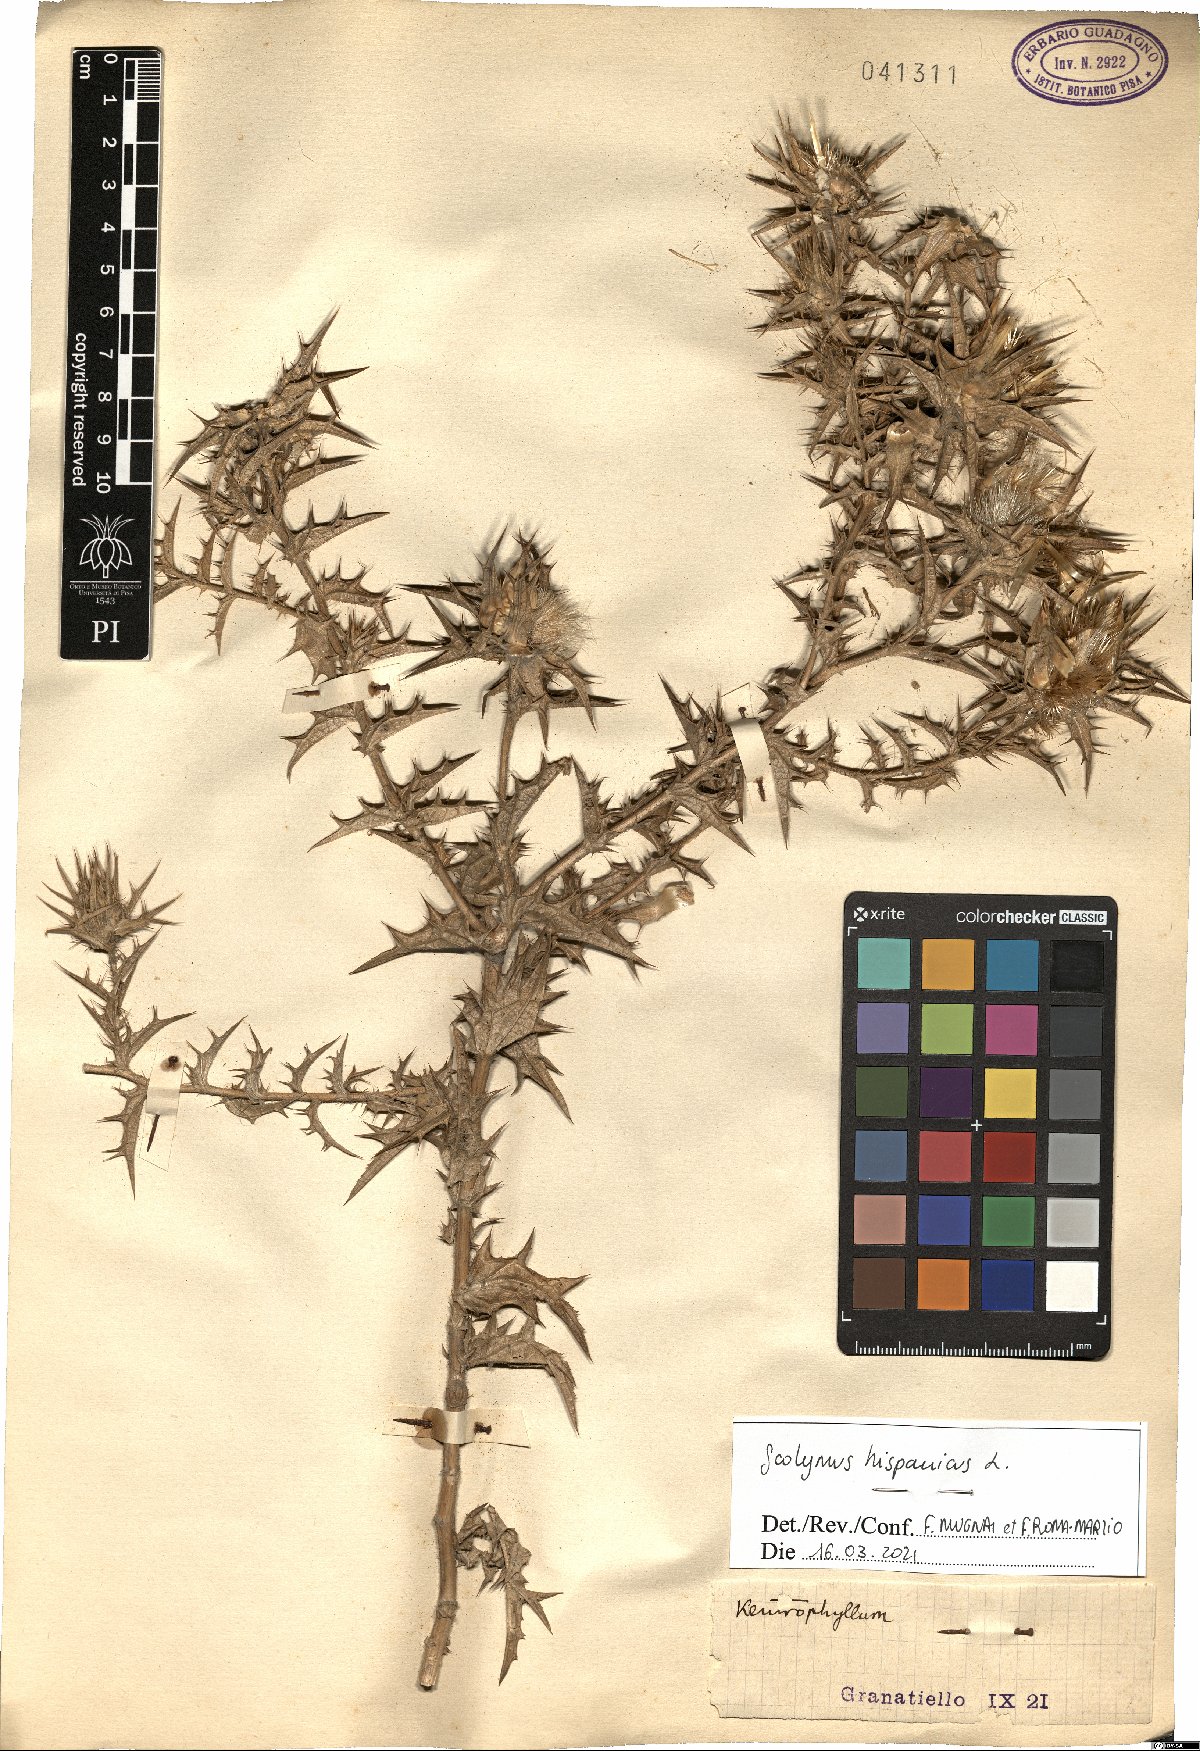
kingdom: Plantae
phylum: Tracheophyta
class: Magnoliopsida
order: Asterales
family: Asteraceae
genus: Scolymus
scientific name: Scolymus hispanicus
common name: Golden thistle
